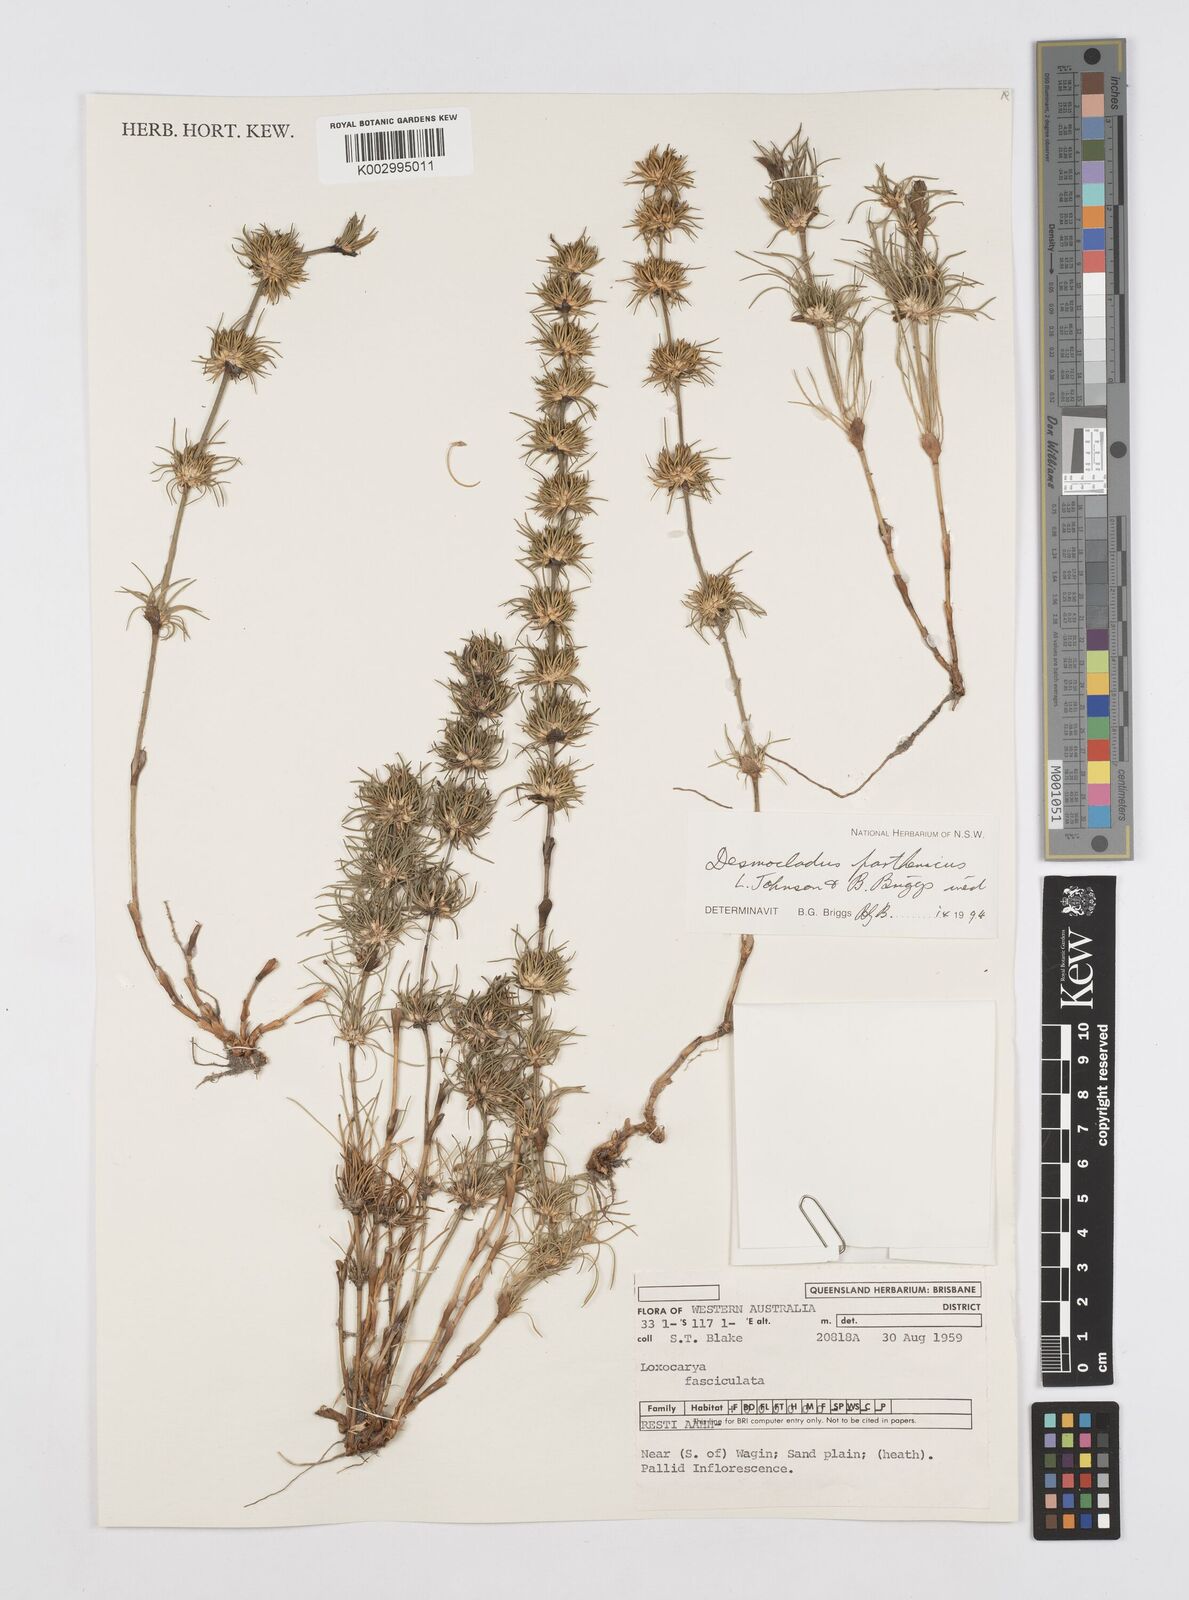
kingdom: Plantae
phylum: Tracheophyta
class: Liliopsida
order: Poales
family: Restionaceae
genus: Desmocladus
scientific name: Desmocladus parthenicus
